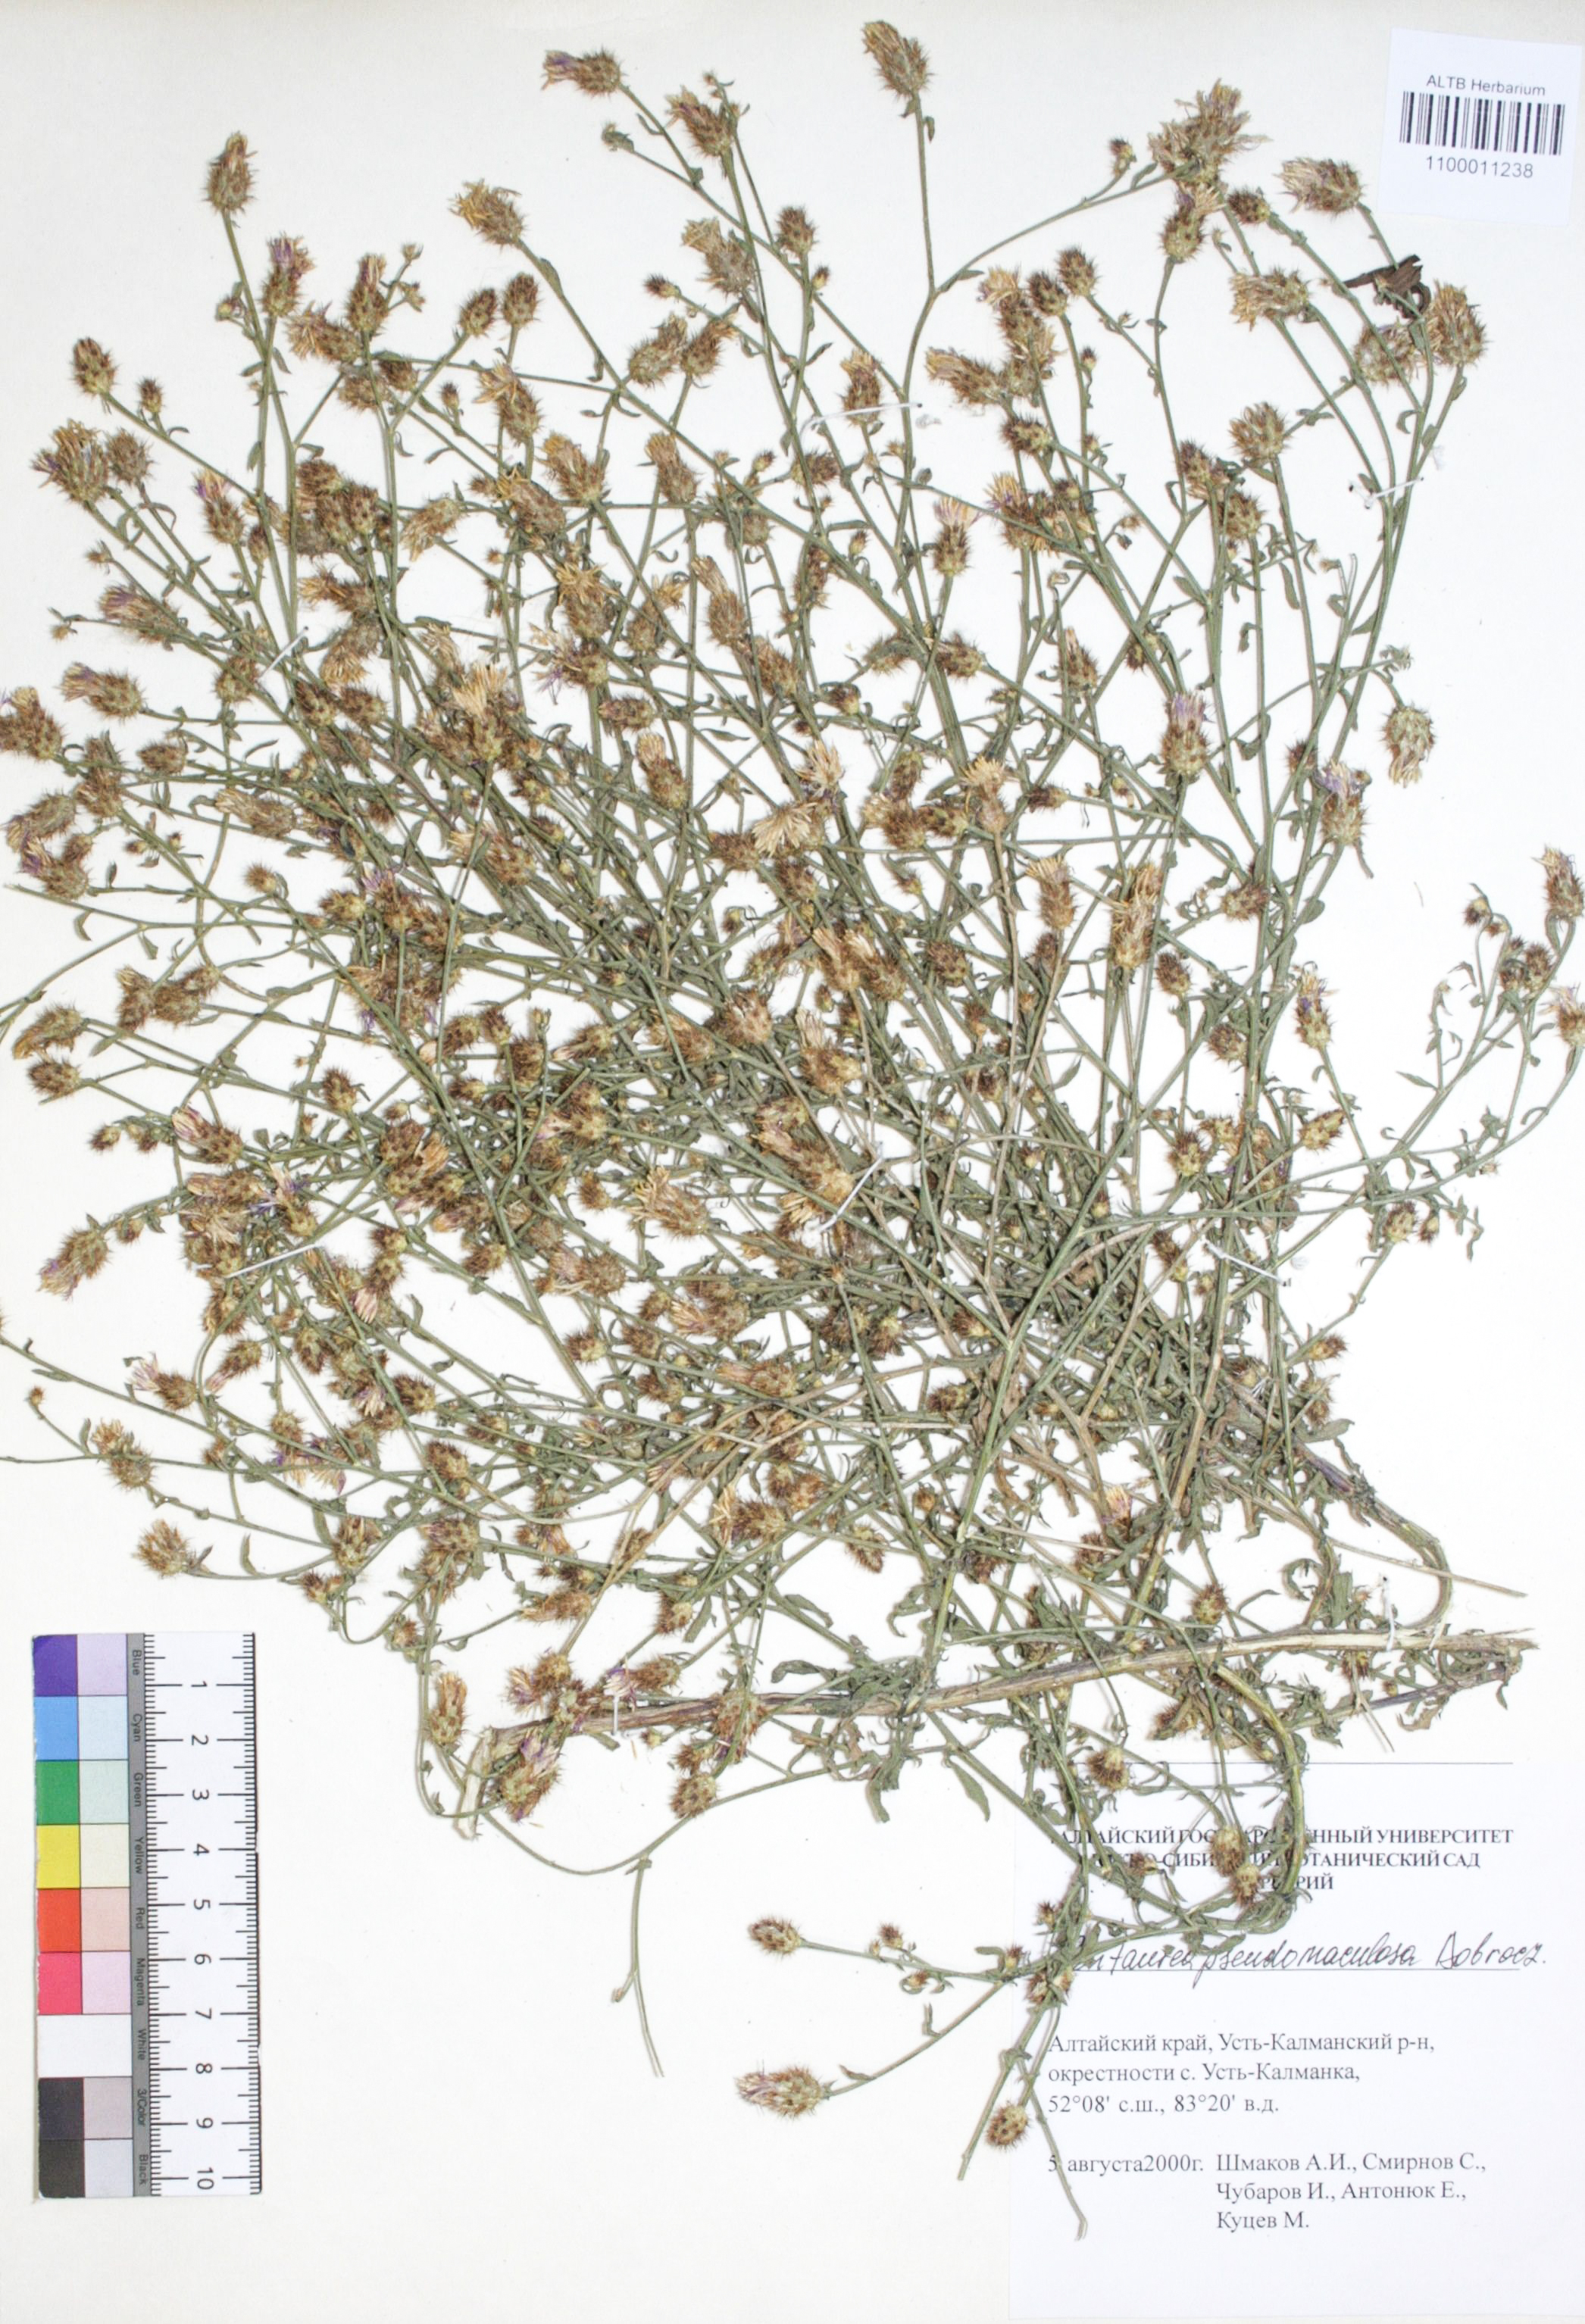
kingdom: Plantae
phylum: Tracheophyta
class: Magnoliopsida
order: Asterales
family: Asteraceae
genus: Centaurea
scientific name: Centaurea pseudomaculosa
